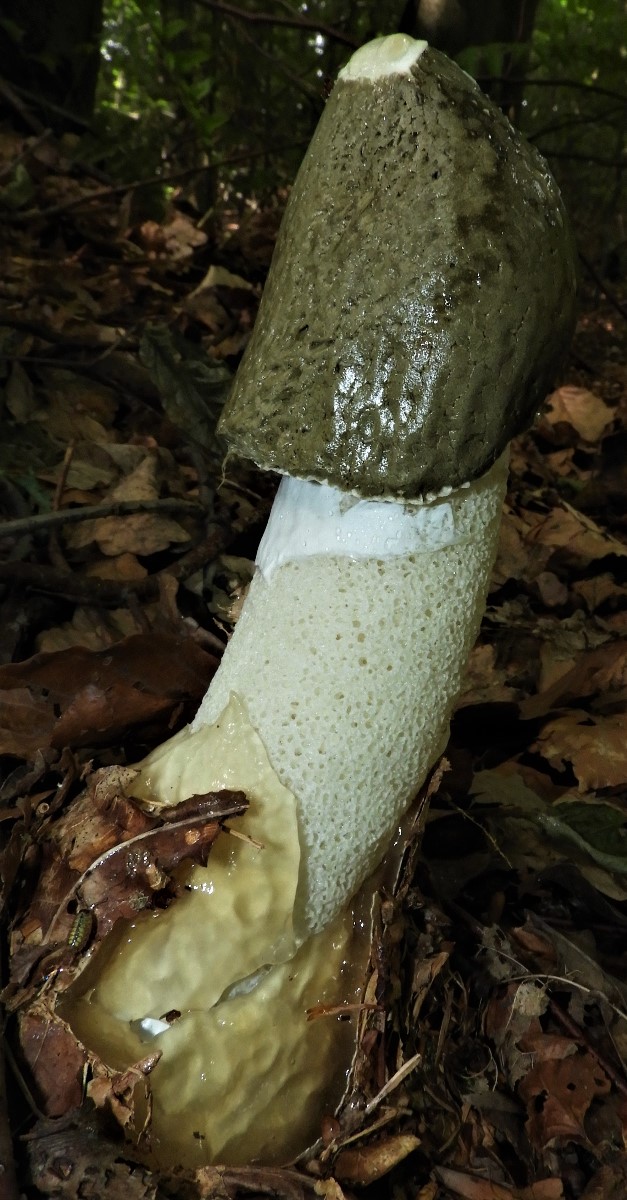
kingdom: Fungi
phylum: Basidiomycota
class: Agaricomycetes
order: Phallales
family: Phallaceae
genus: Phallus
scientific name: Phallus impudicus
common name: almindelig stinksvamp
